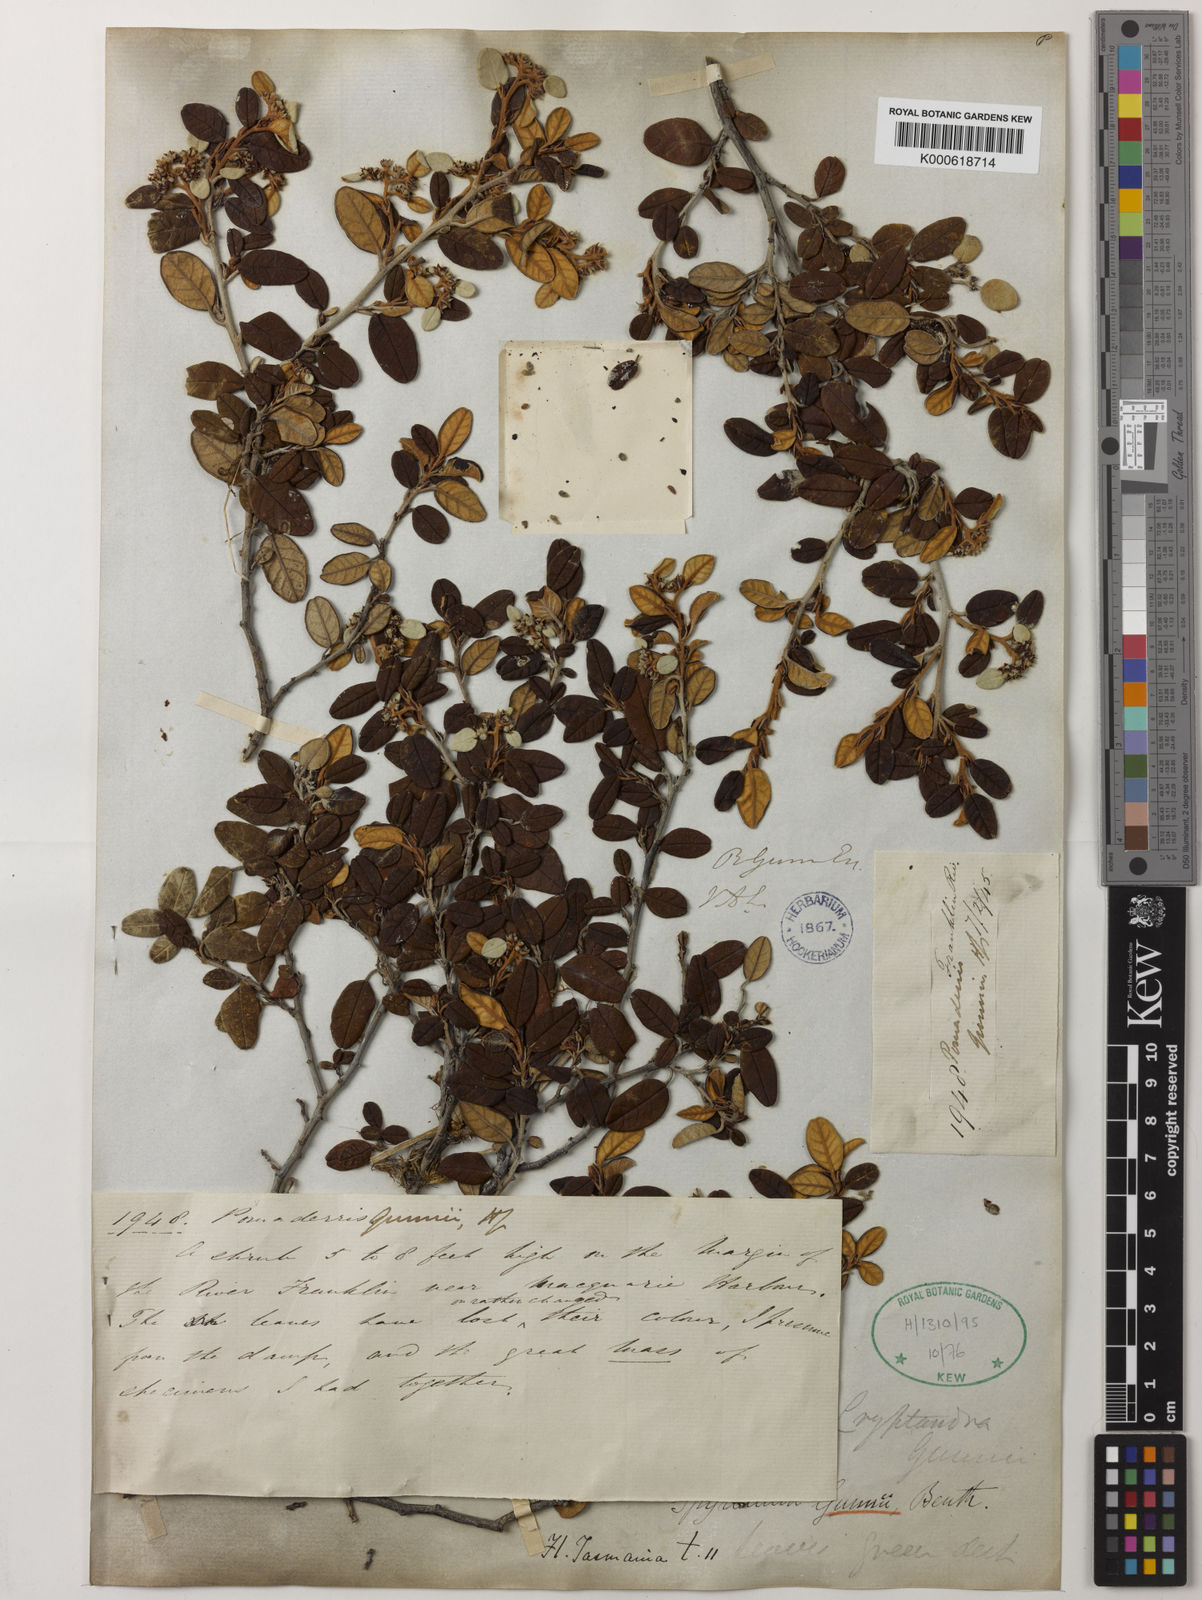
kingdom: Plantae
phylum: Tracheophyta
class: Magnoliopsida
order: Rosales
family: Rhamnaceae
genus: Spyridium
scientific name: Spyridium gunnii
